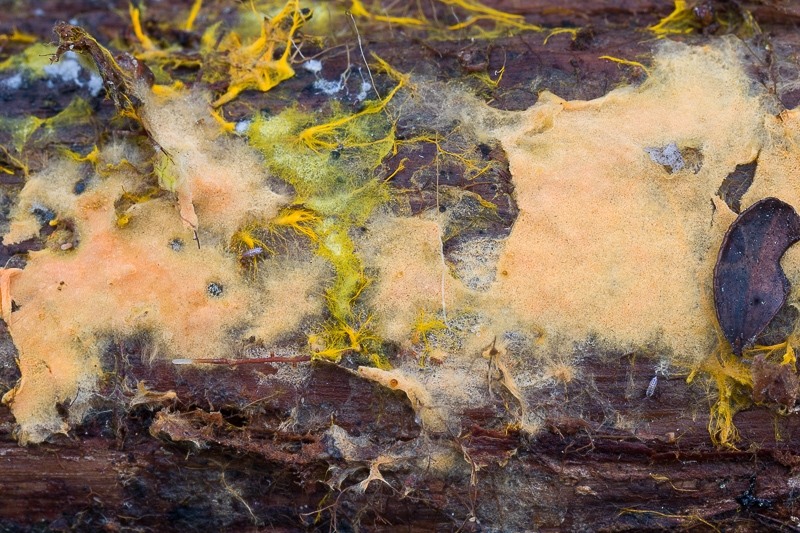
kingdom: Fungi
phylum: Basidiomycota
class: Agaricomycetes
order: Atheliales
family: Atheliaceae
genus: Tretomyces
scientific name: Tretomyces microsporus
